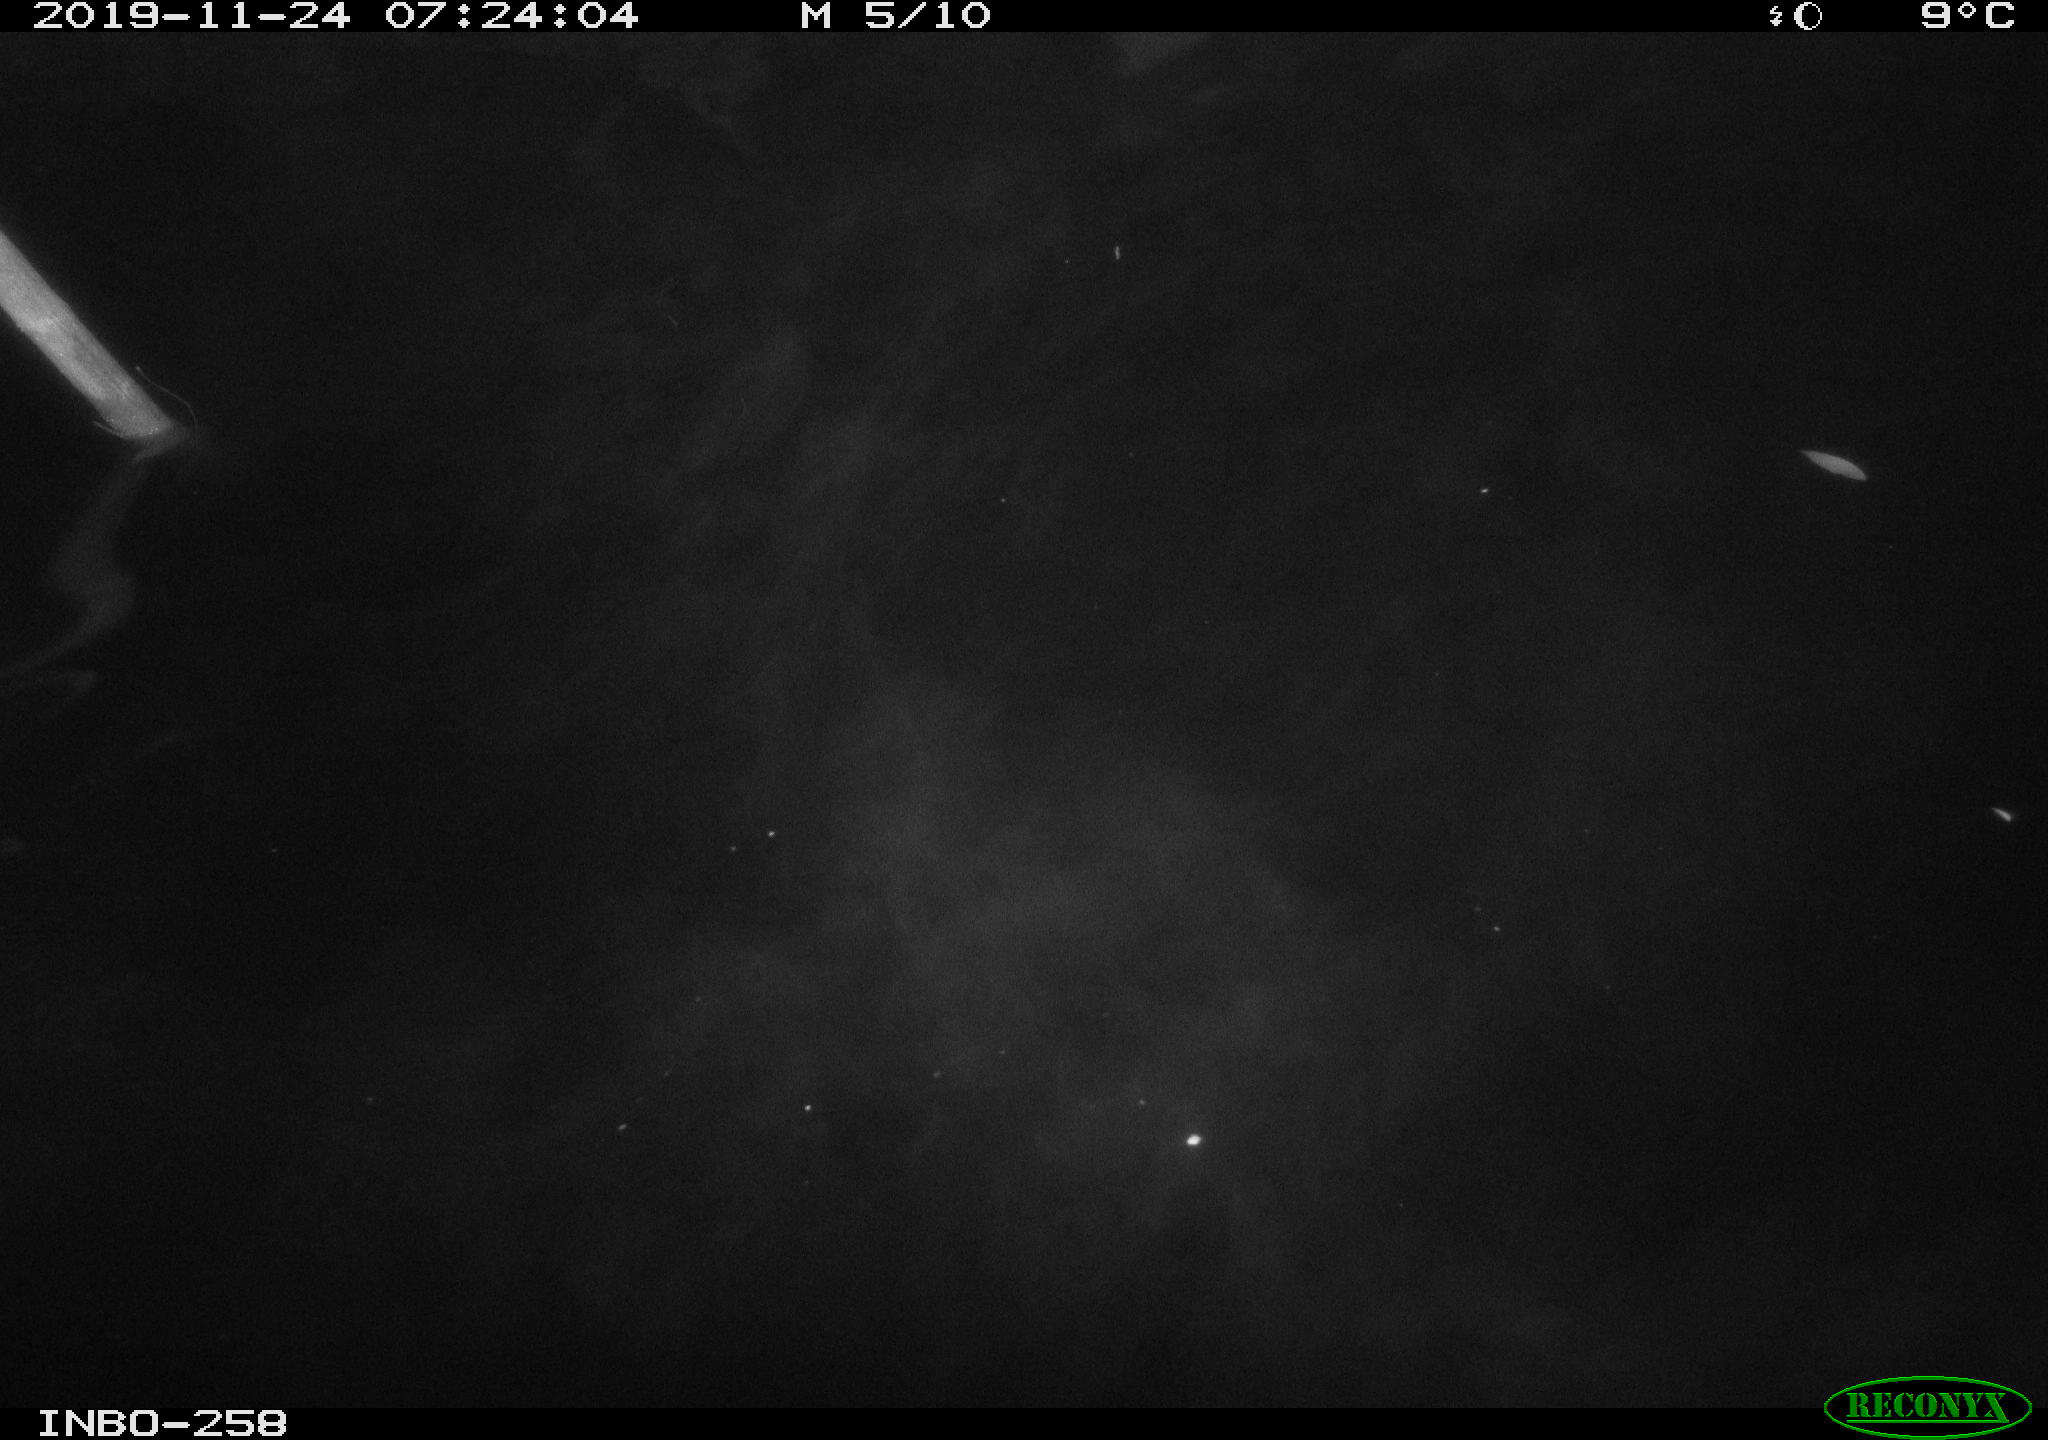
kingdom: Animalia
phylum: Chordata
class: Aves
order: Anseriformes
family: Anatidae
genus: Anas
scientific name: Anas platyrhynchos
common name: Mallard
